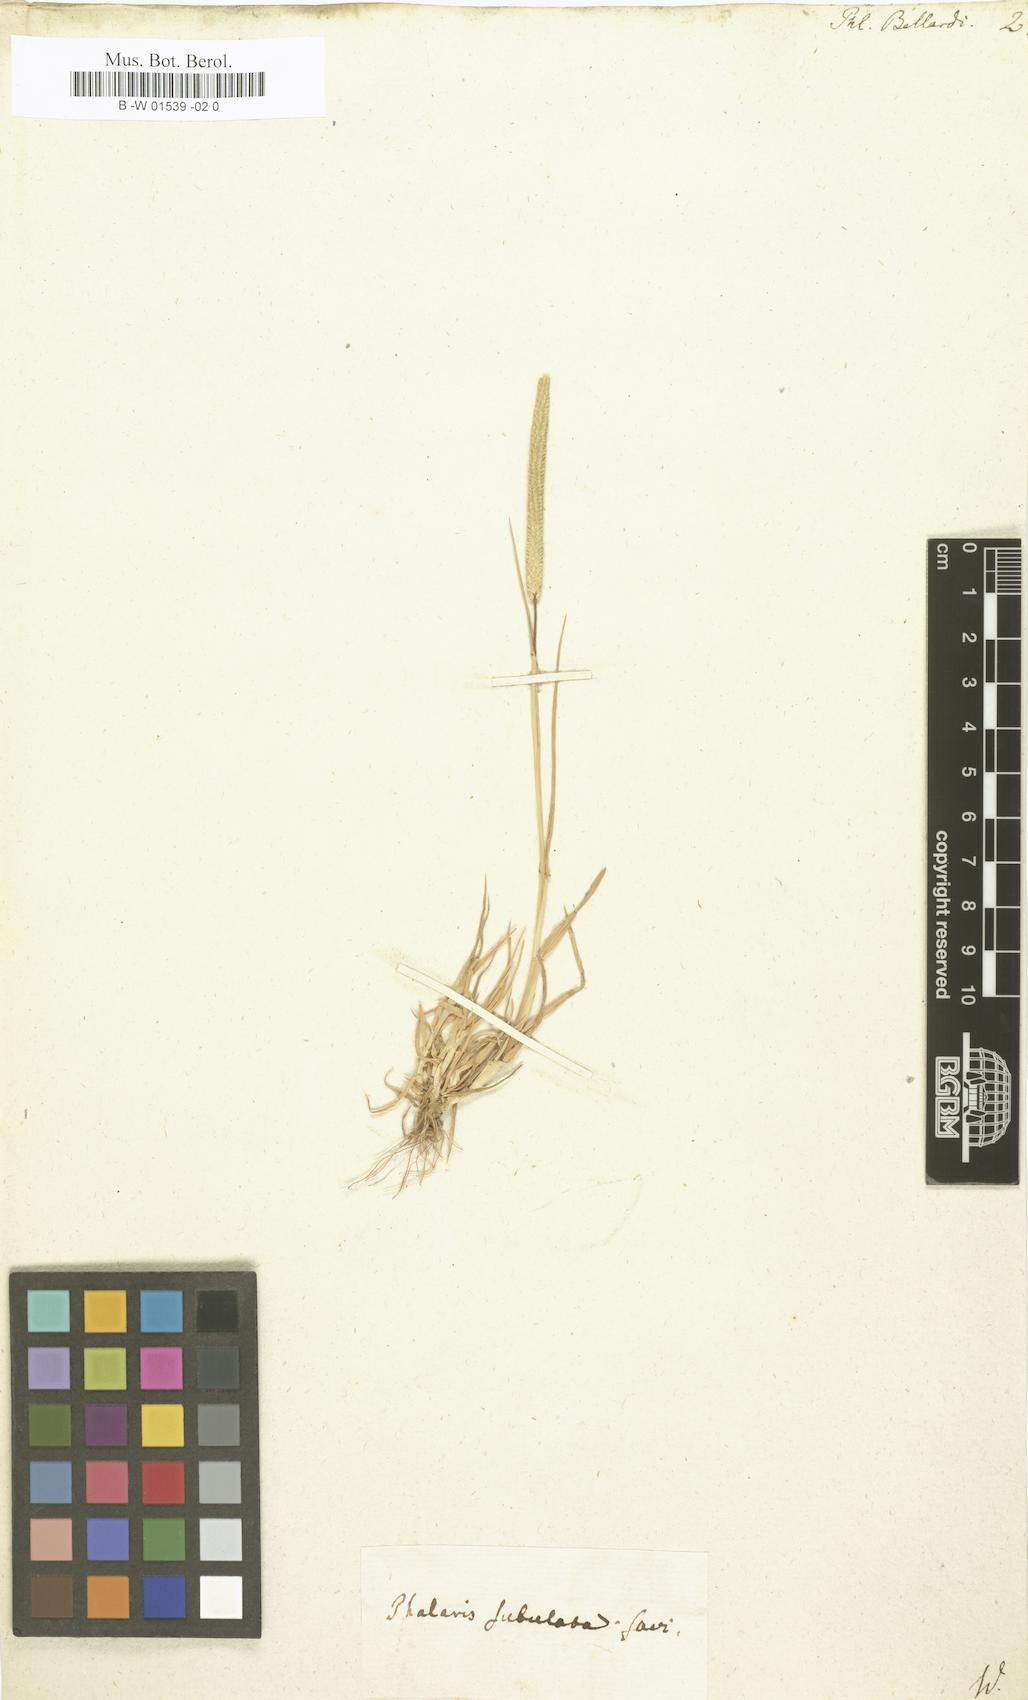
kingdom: Plantae
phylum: Tracheophyta
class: Liliopsida
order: Poales
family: Poaceae
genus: Phleum
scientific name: Phleum subulatum
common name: Italian timothy
